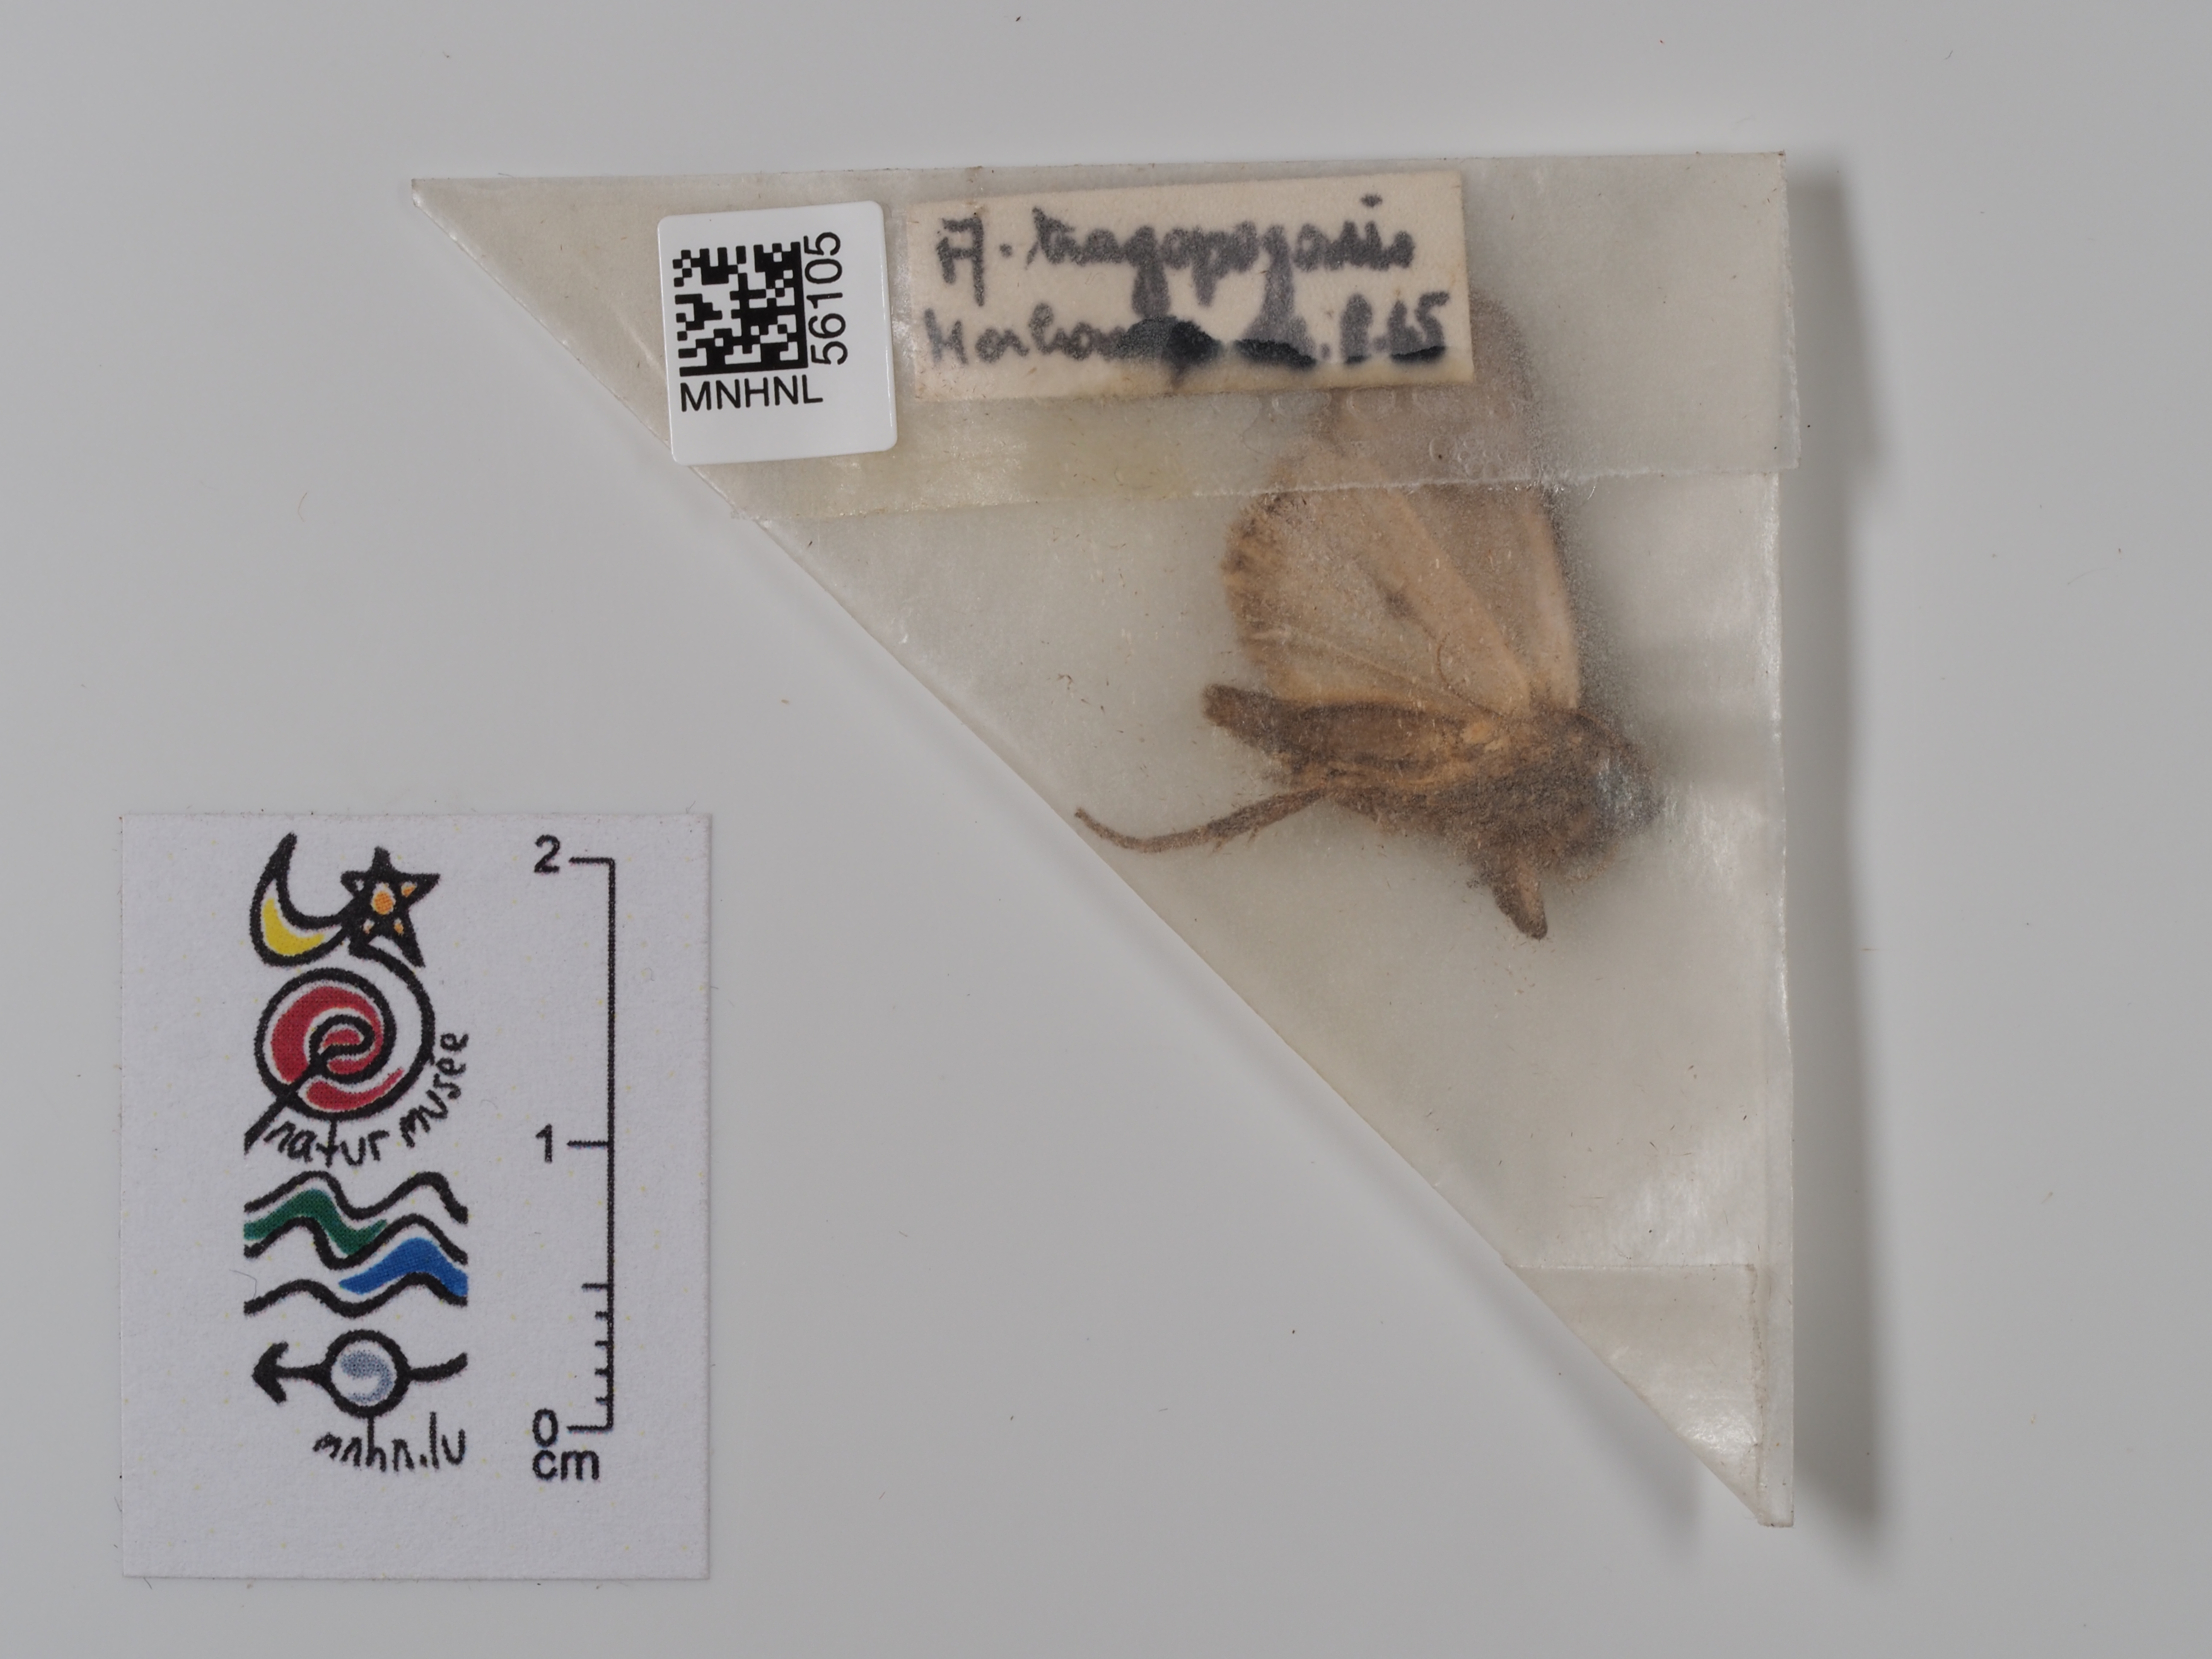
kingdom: Animalia
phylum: Arthropoda
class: Insecta
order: Lepidoptera
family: Noctuidae
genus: Amphipyra
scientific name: Amphipyra tragopoginis
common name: Mouse moth
